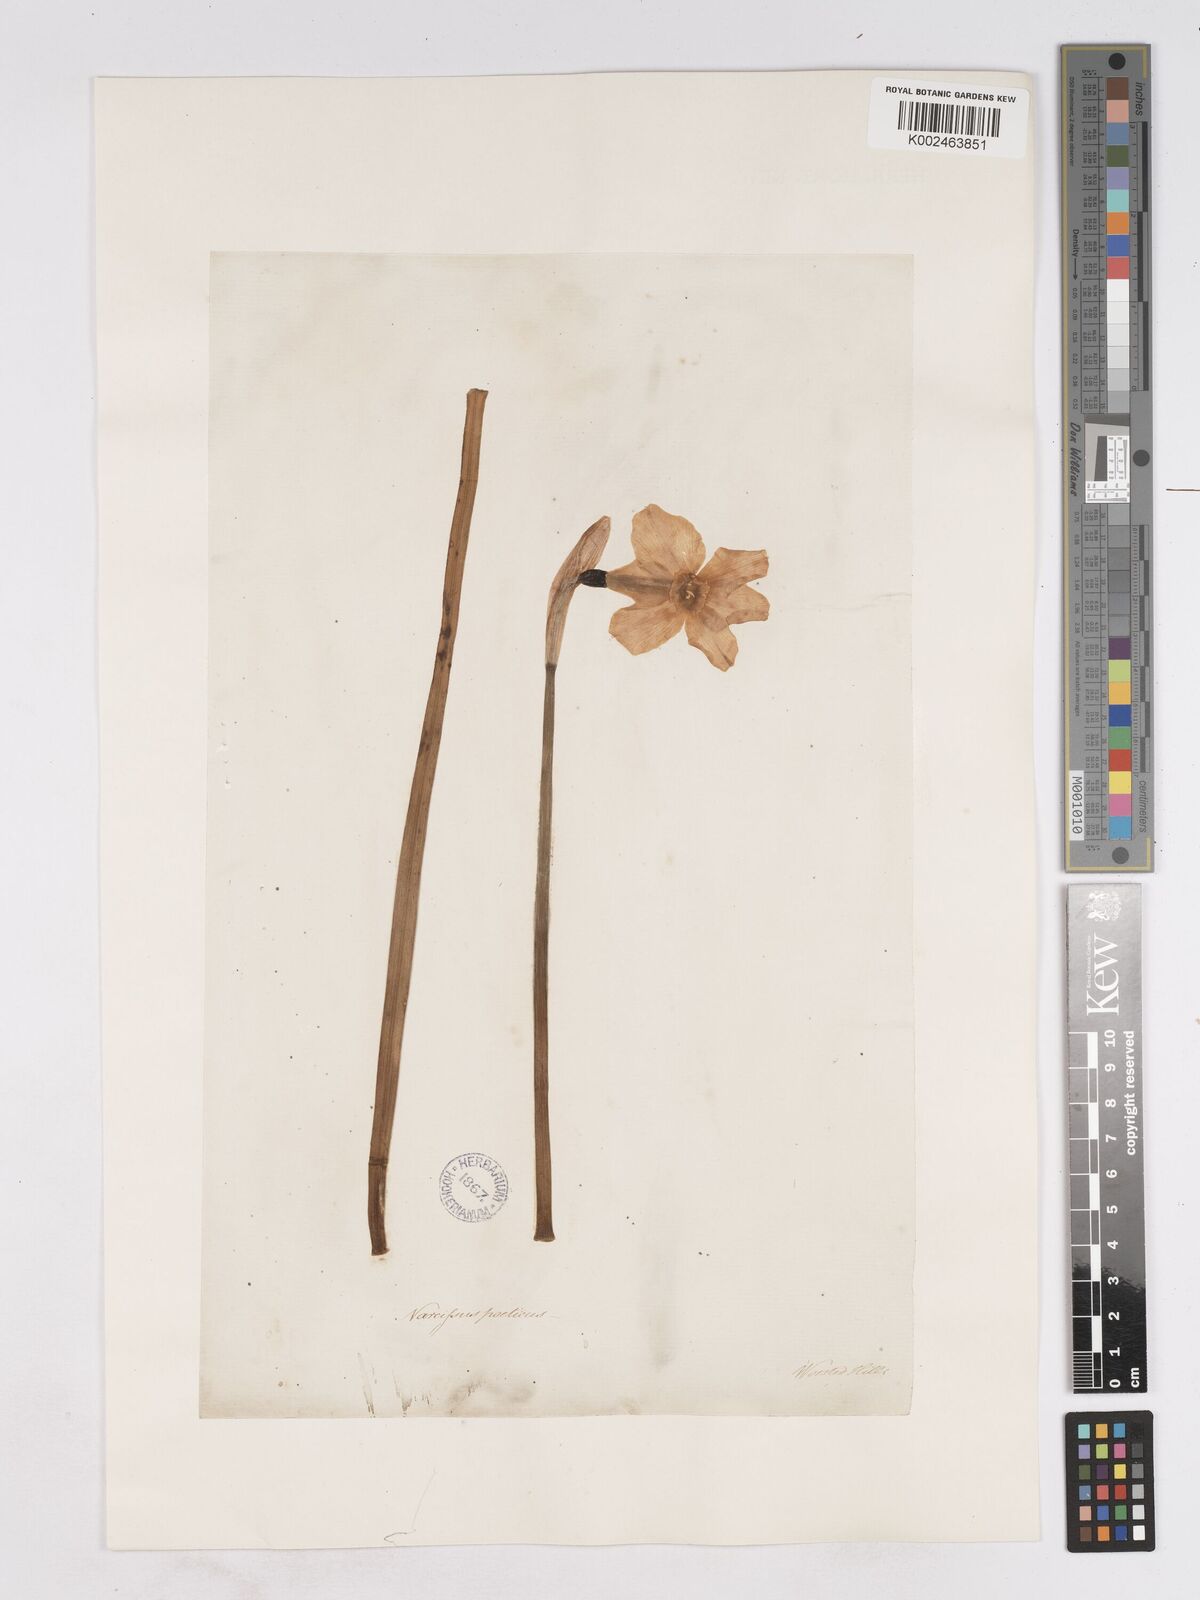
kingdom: Plantae
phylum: Tracheophyta
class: Liliopsida
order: Asparagales
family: Amaryllidaceae
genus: Narcissus
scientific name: Narcissus poeticus
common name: Pheasant's-eye daffodil
